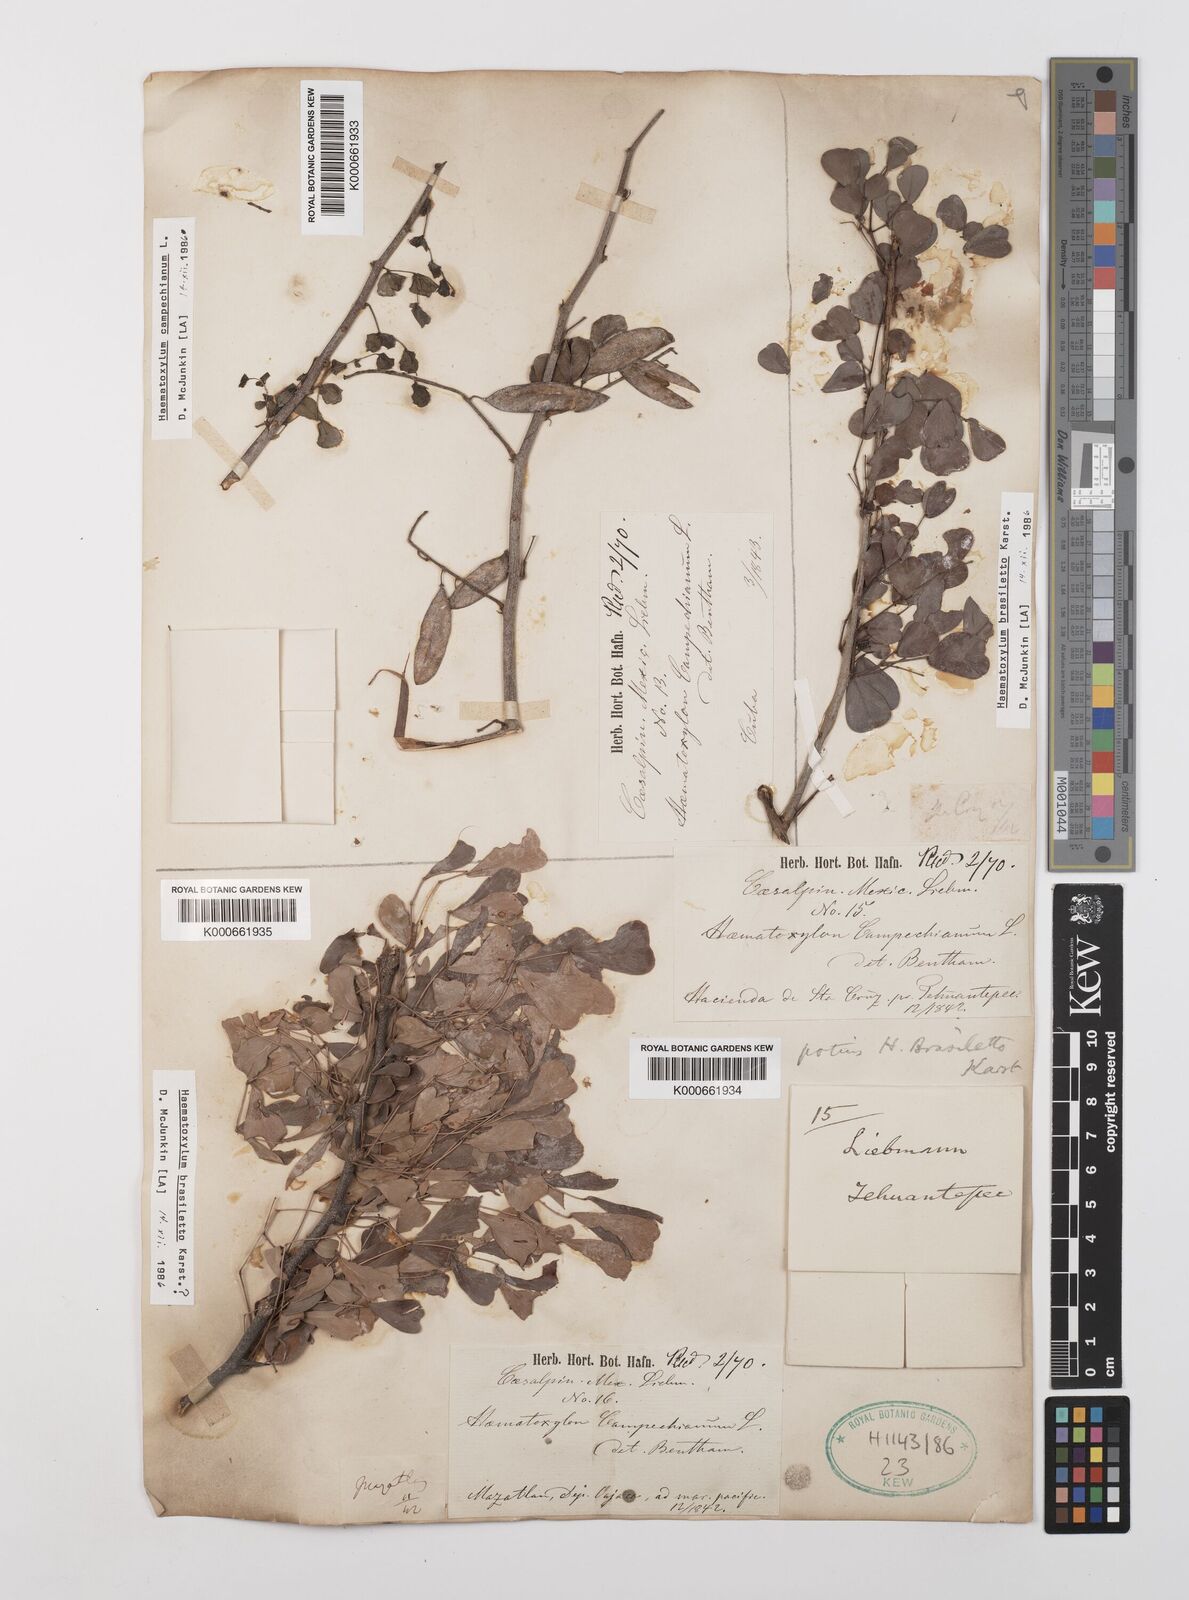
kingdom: Plantae
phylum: Tracheophyta
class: Magnoliopsida
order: Fabales
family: Fabaceae
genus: Haematoxylum
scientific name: Haematoxylum brasiletto
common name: Peachwood
